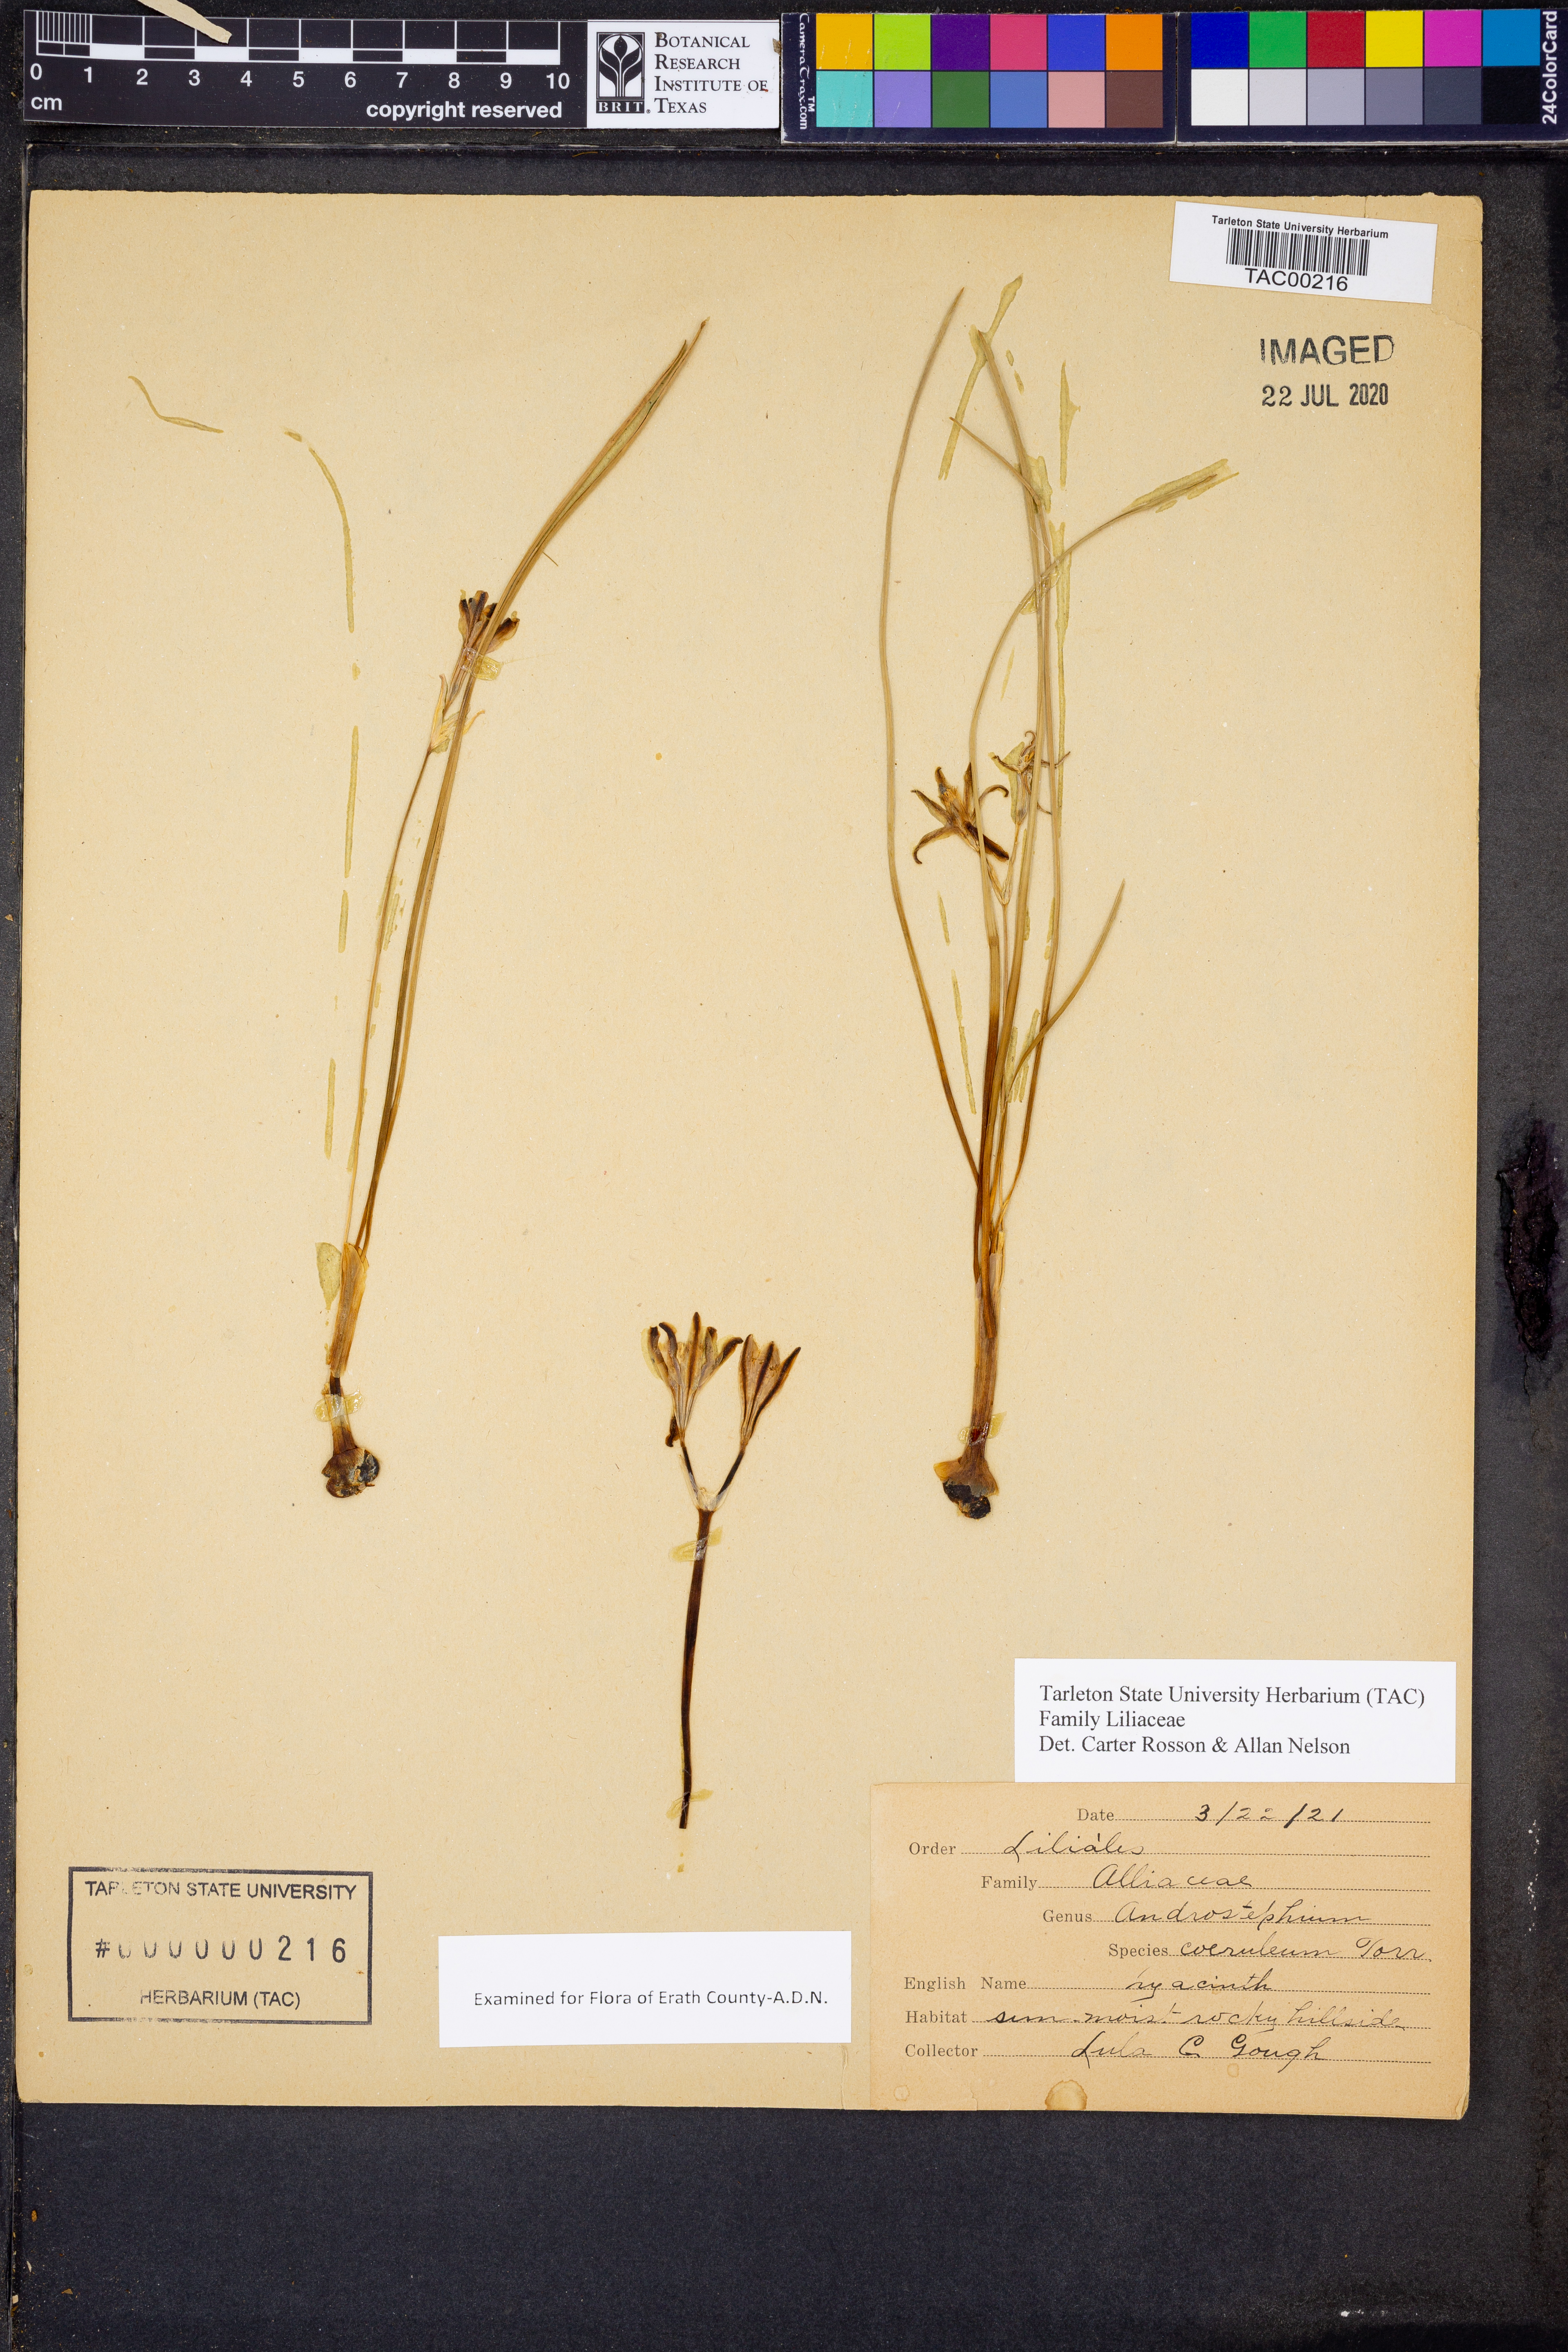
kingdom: Plantae
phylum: Tracheophyta
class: Liliopsida
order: Asparagales
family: Asparagaceae
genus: Androstephium
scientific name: Androstephium coeruleum
